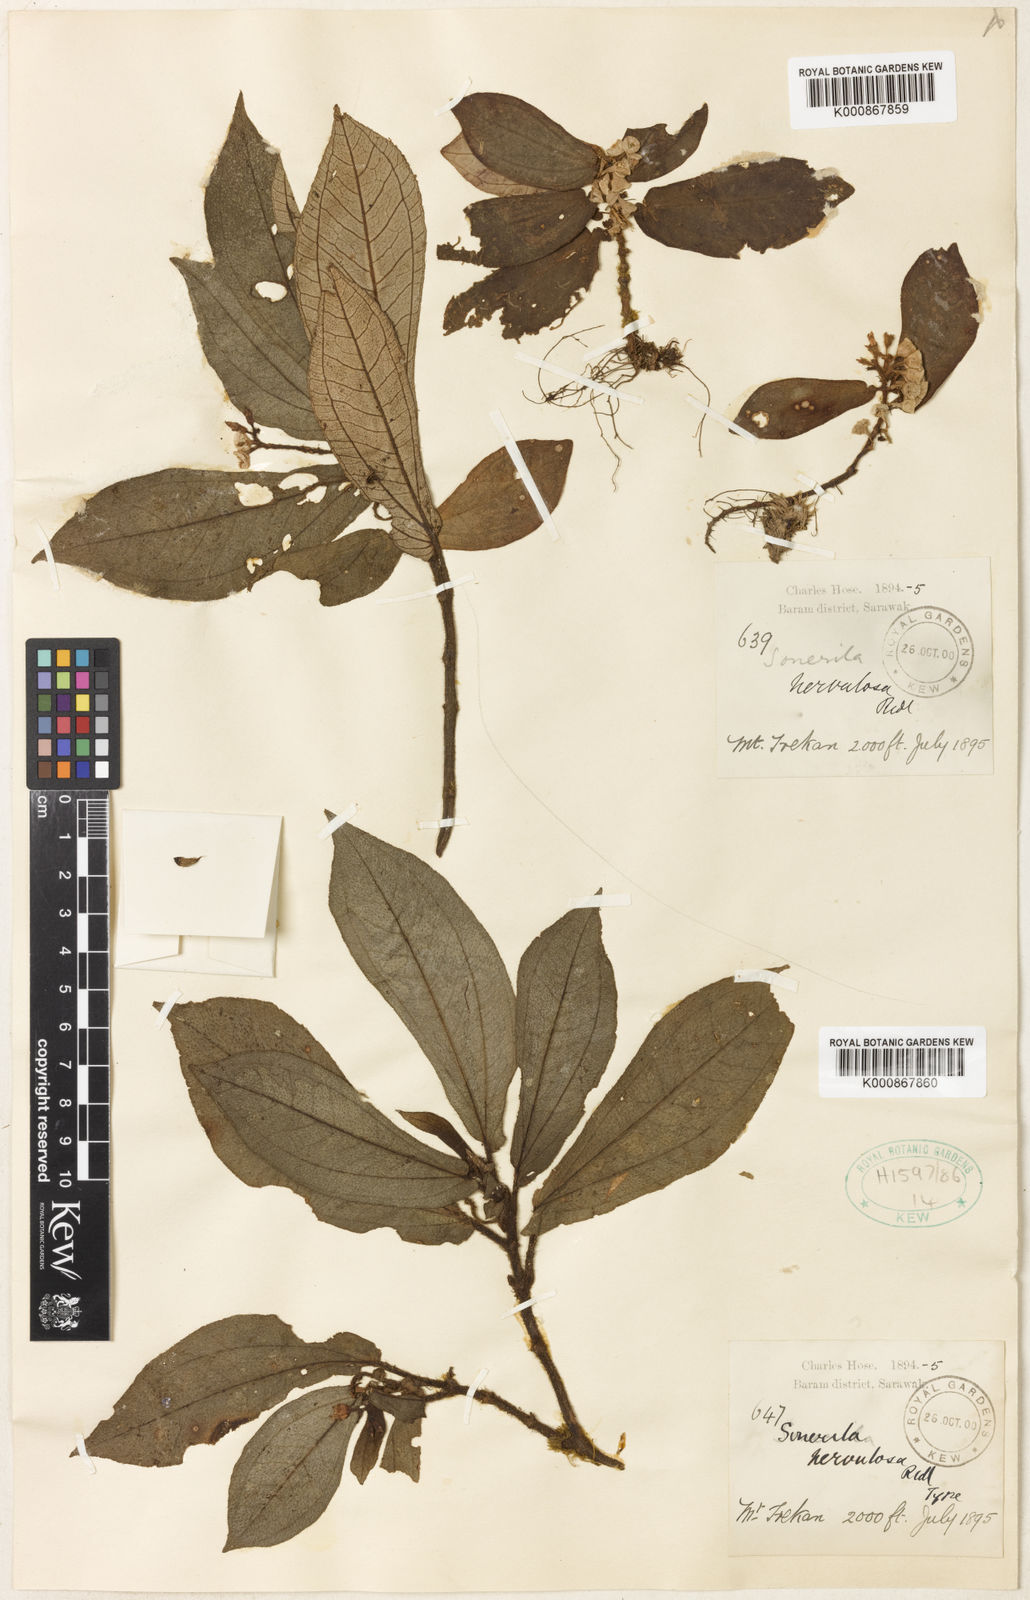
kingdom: Plantae
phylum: Tracheophyta
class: Magnoliopsida
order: Myrtales
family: Melastomataceae
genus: Sonerila
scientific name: Sonerila nervulosa
